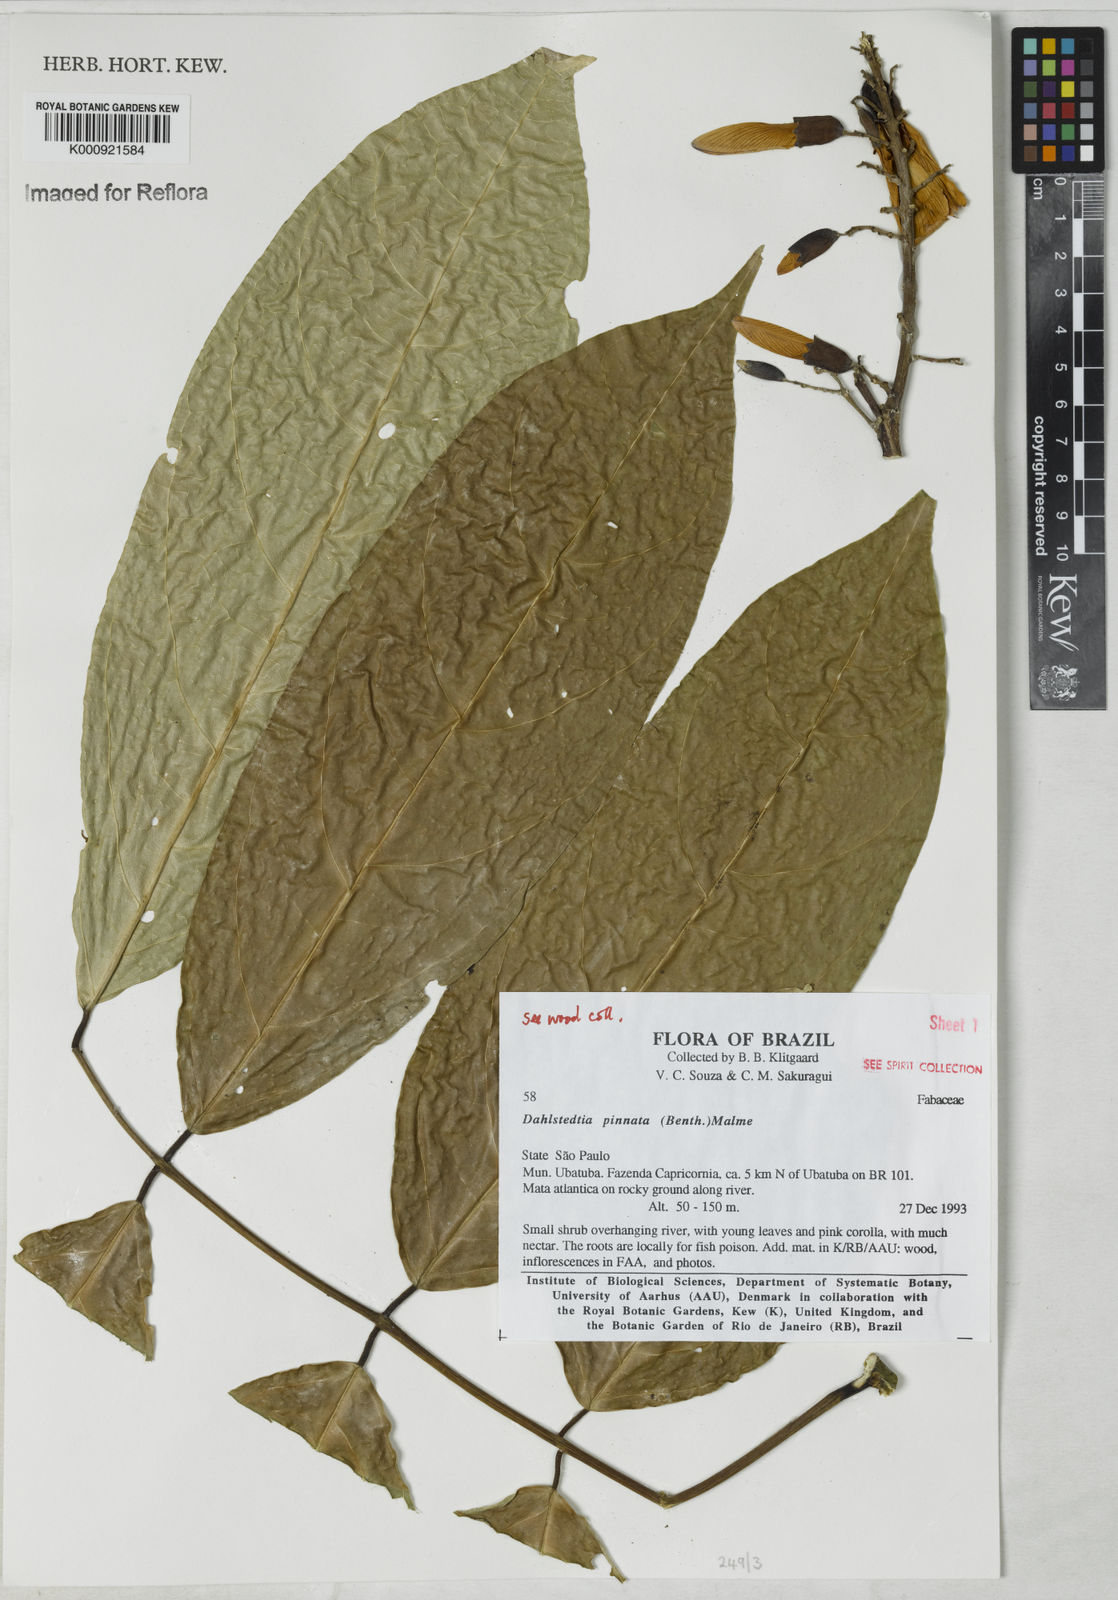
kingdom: Plantae
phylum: Tracheophyta
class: Magnoliopsida
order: Fabales
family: Fabaceae
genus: Dahlstedtia
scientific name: Dahlstedtia pinnata
